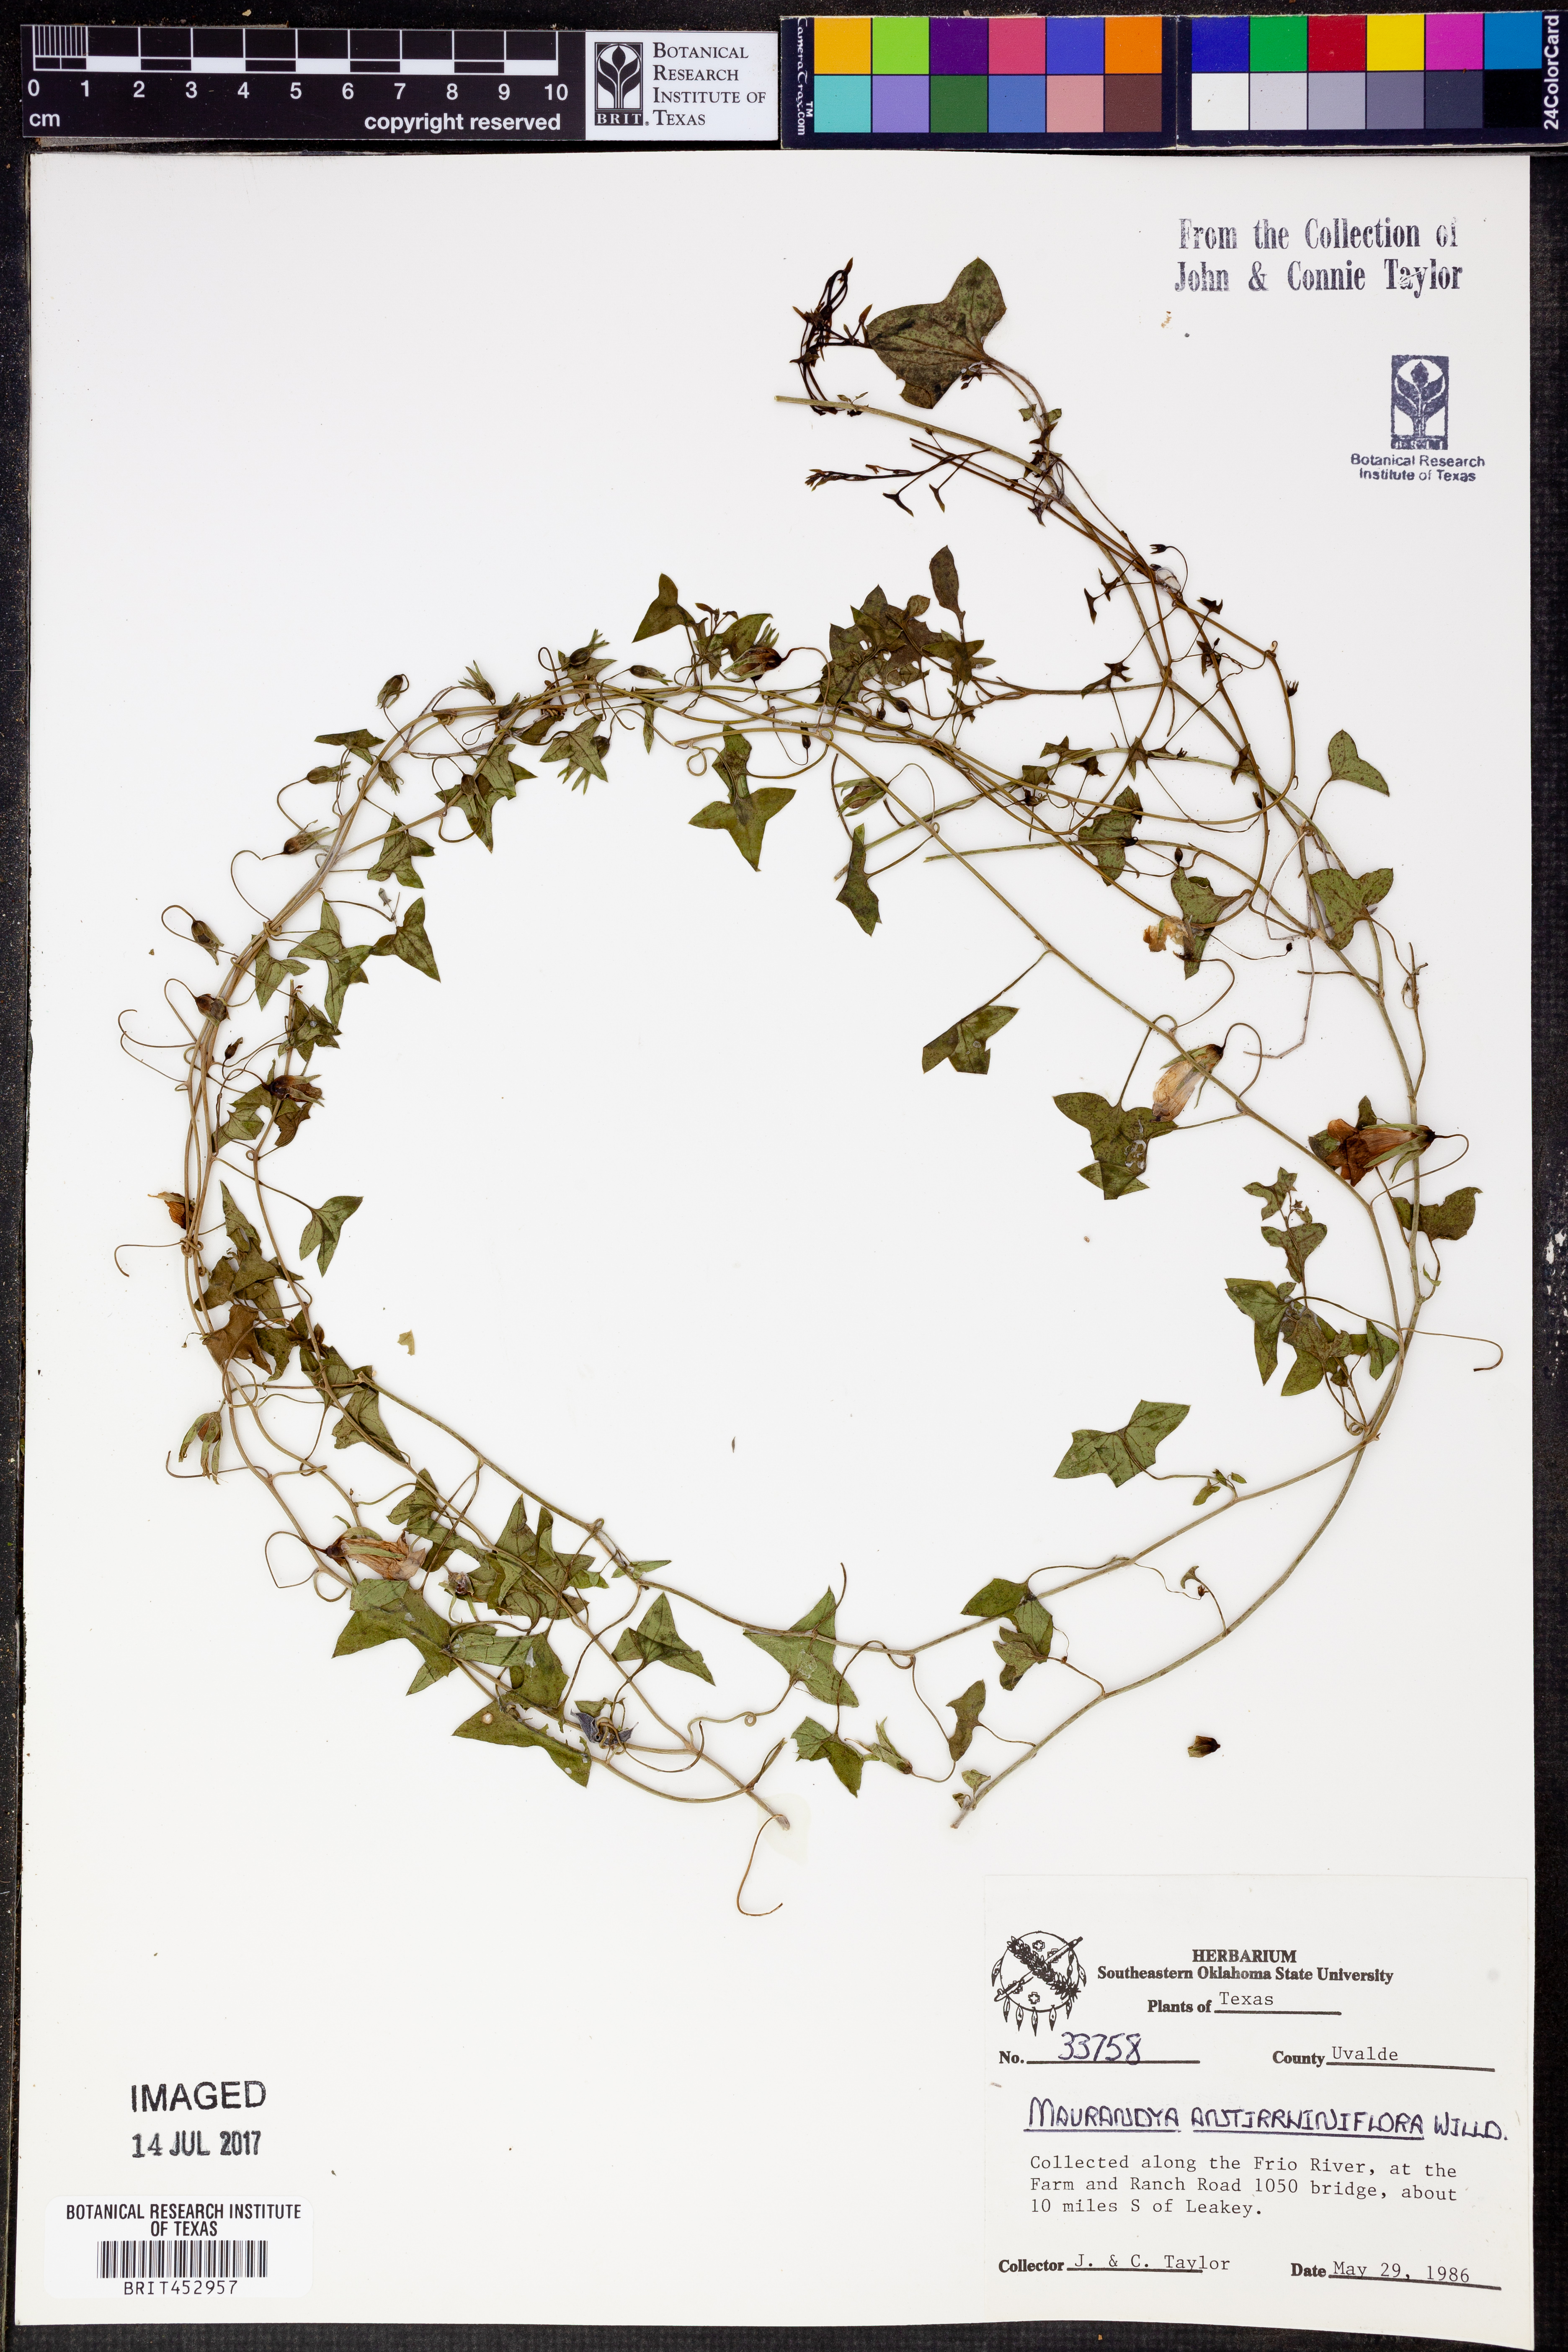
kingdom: Plantae
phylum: Tracheophyta
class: Magnoliopsida
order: Lamiales
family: Plantaginaceae
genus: Maurandella
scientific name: Maurandella antirrhiniflora
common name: Violet twining-snapdragon
